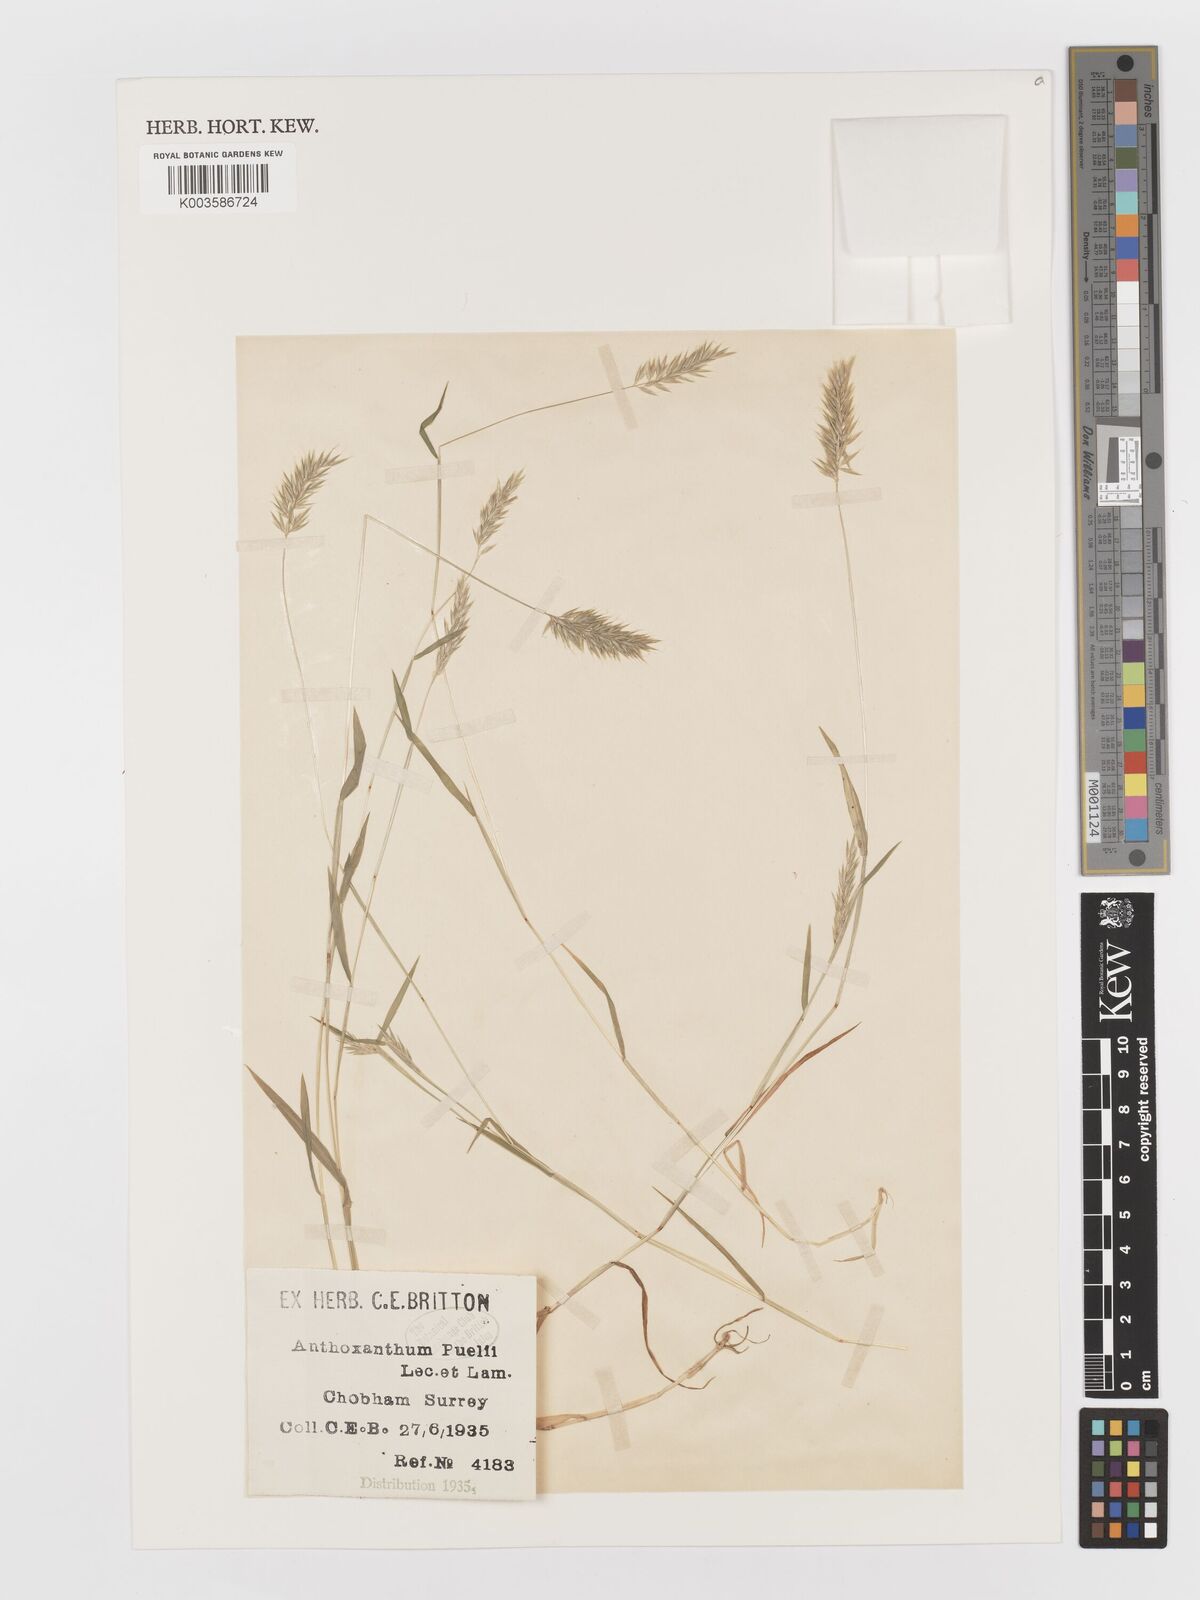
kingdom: Plantae
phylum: Tracheophyta
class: Liliopsida
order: Poales
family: Poaceae
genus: Anthoxanthum
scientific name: Anthoxanthum aristatum
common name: Annual vernal-grass
